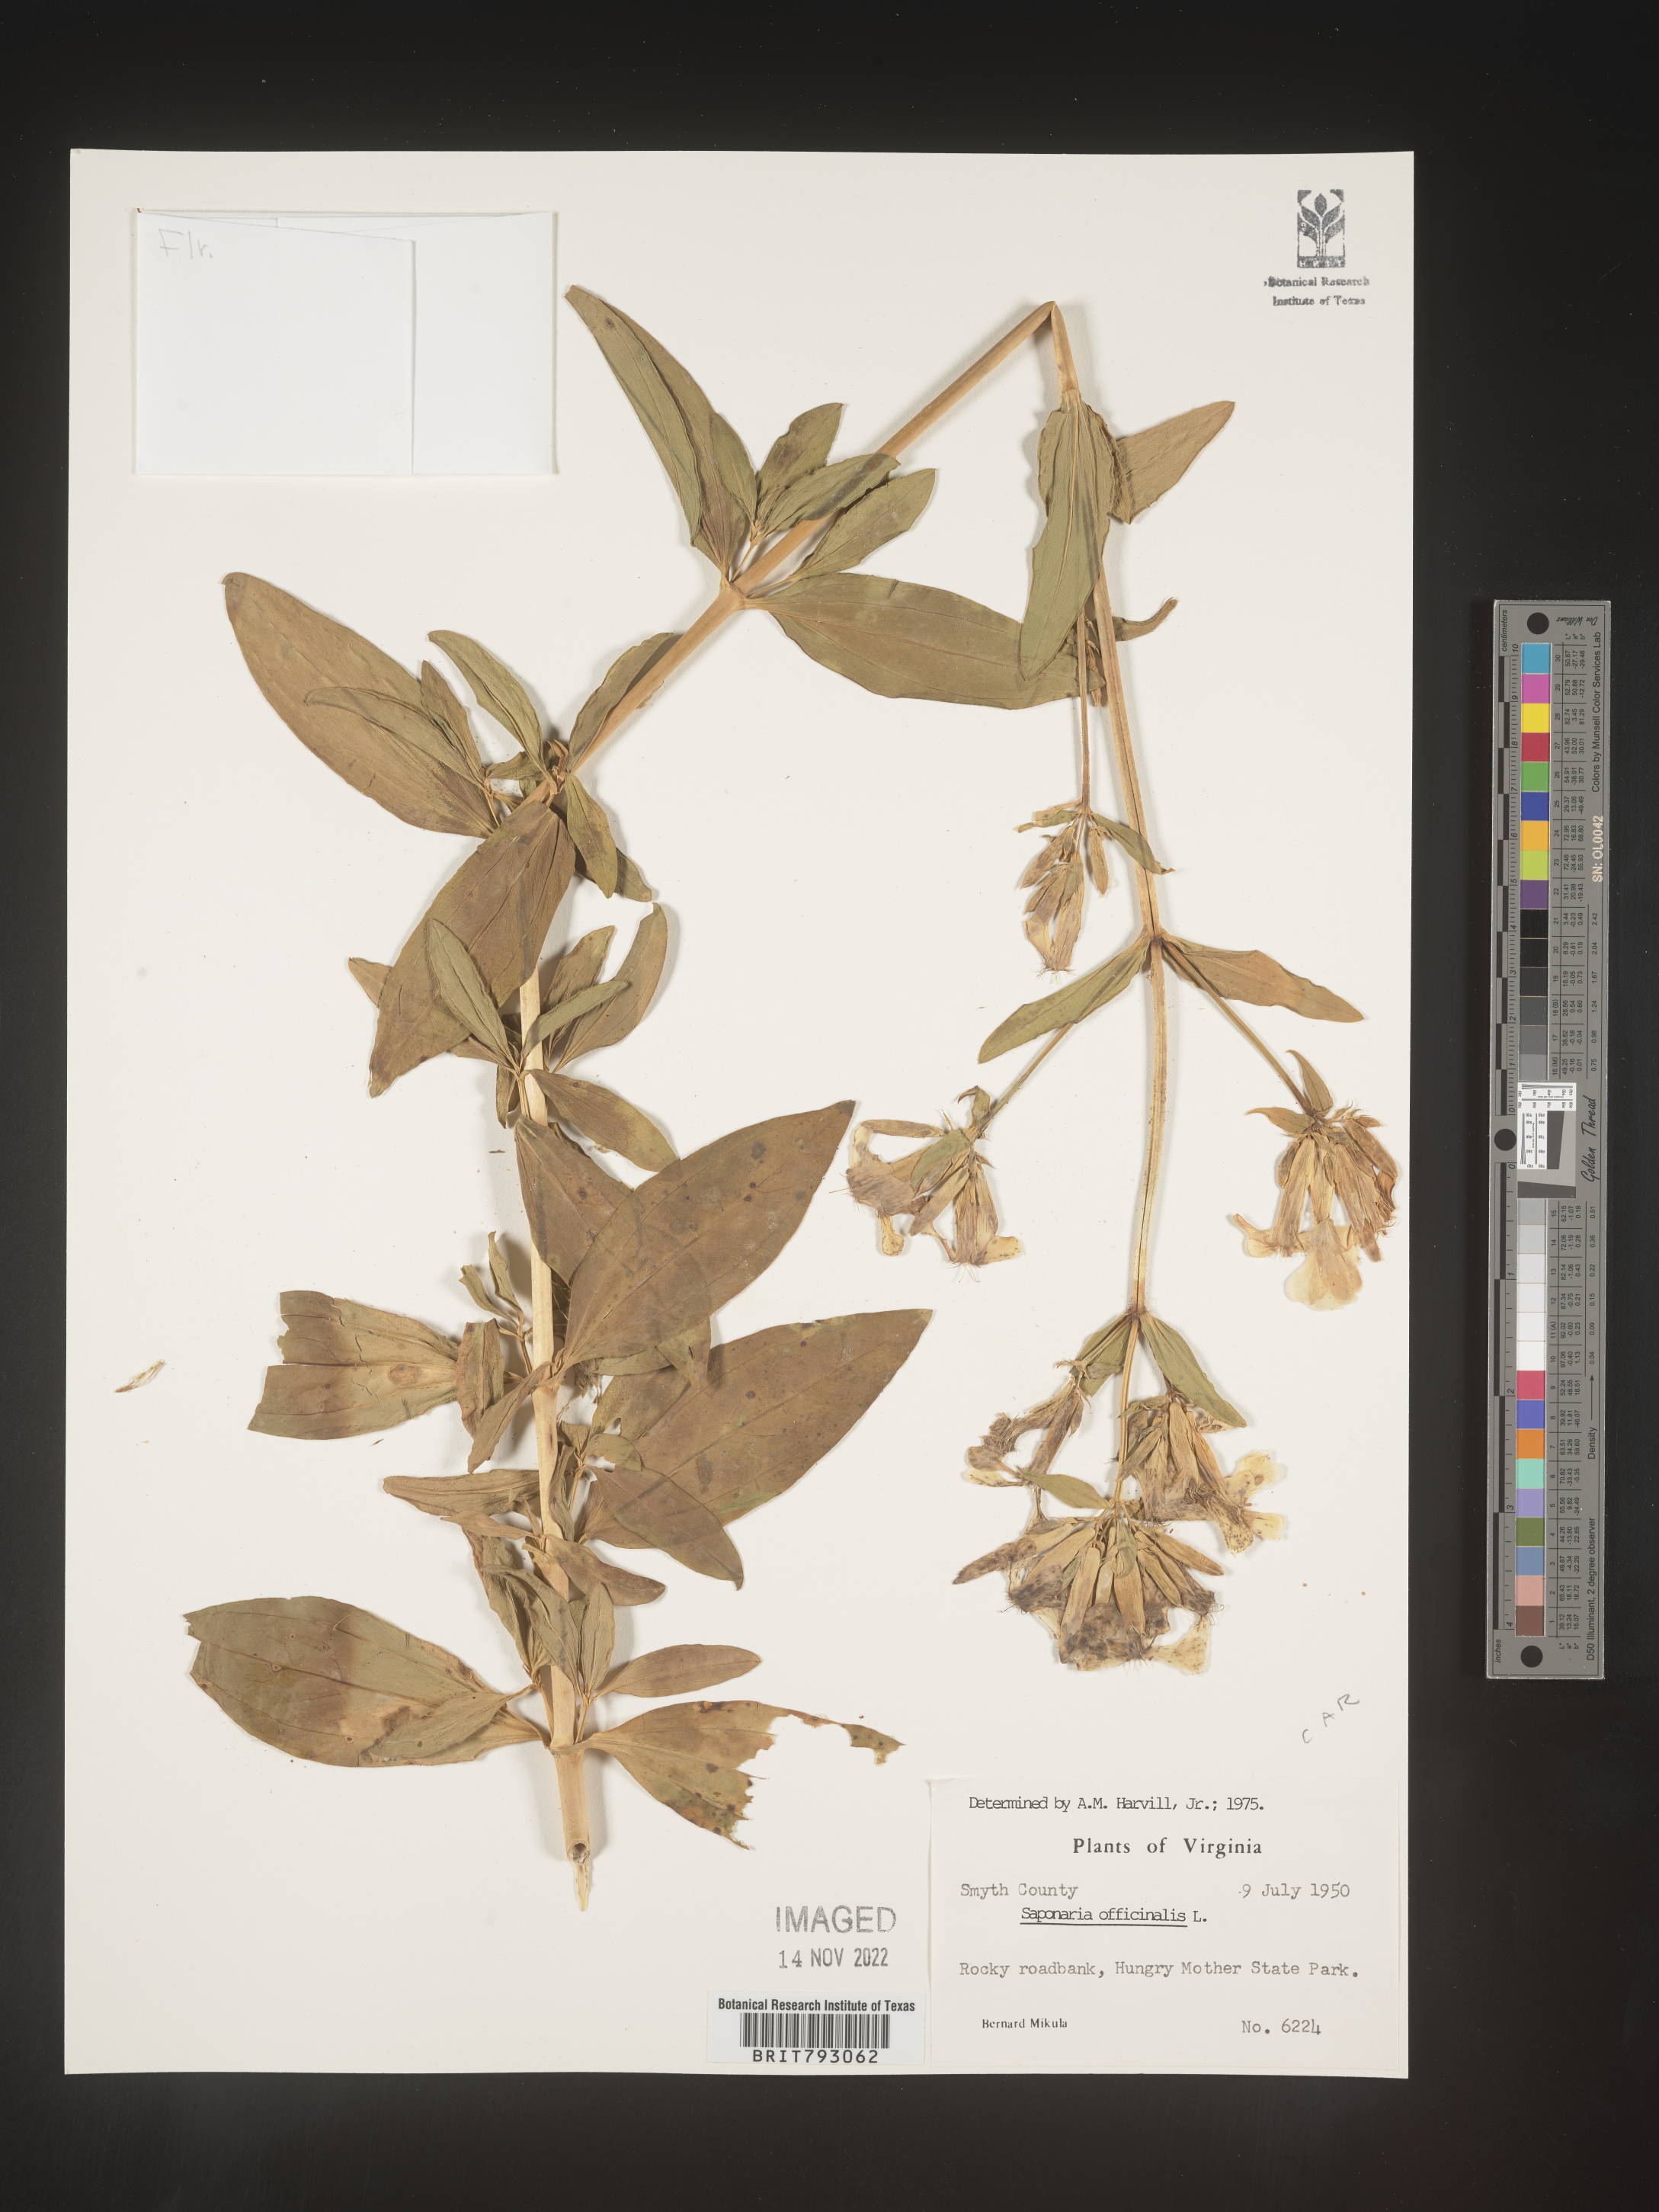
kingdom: Plantae
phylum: Tracheophyta
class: Magnoliopsida
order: Caryophyllales
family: Caryophyllaceae
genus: Saponaria
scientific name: Saponaria officinalis
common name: Soapwort
